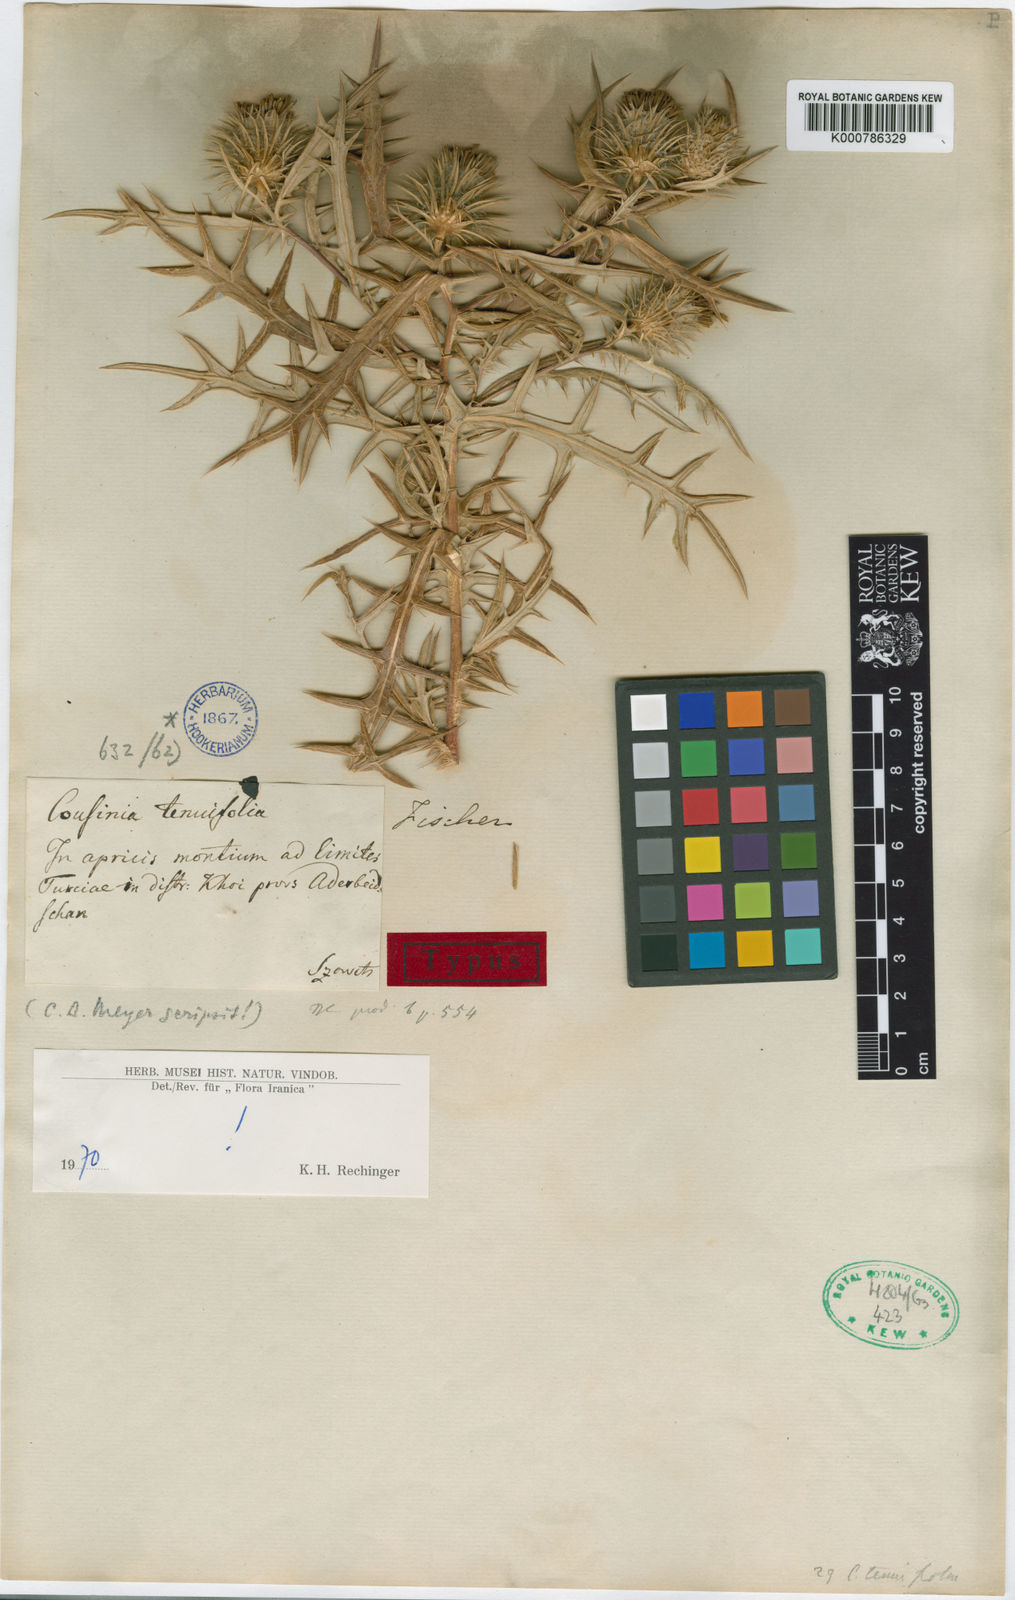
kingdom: Plantae
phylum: Tracheophyta
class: Magnoliopsida
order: Asterales
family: Asteraceae
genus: Cousinia
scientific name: Cousinia
